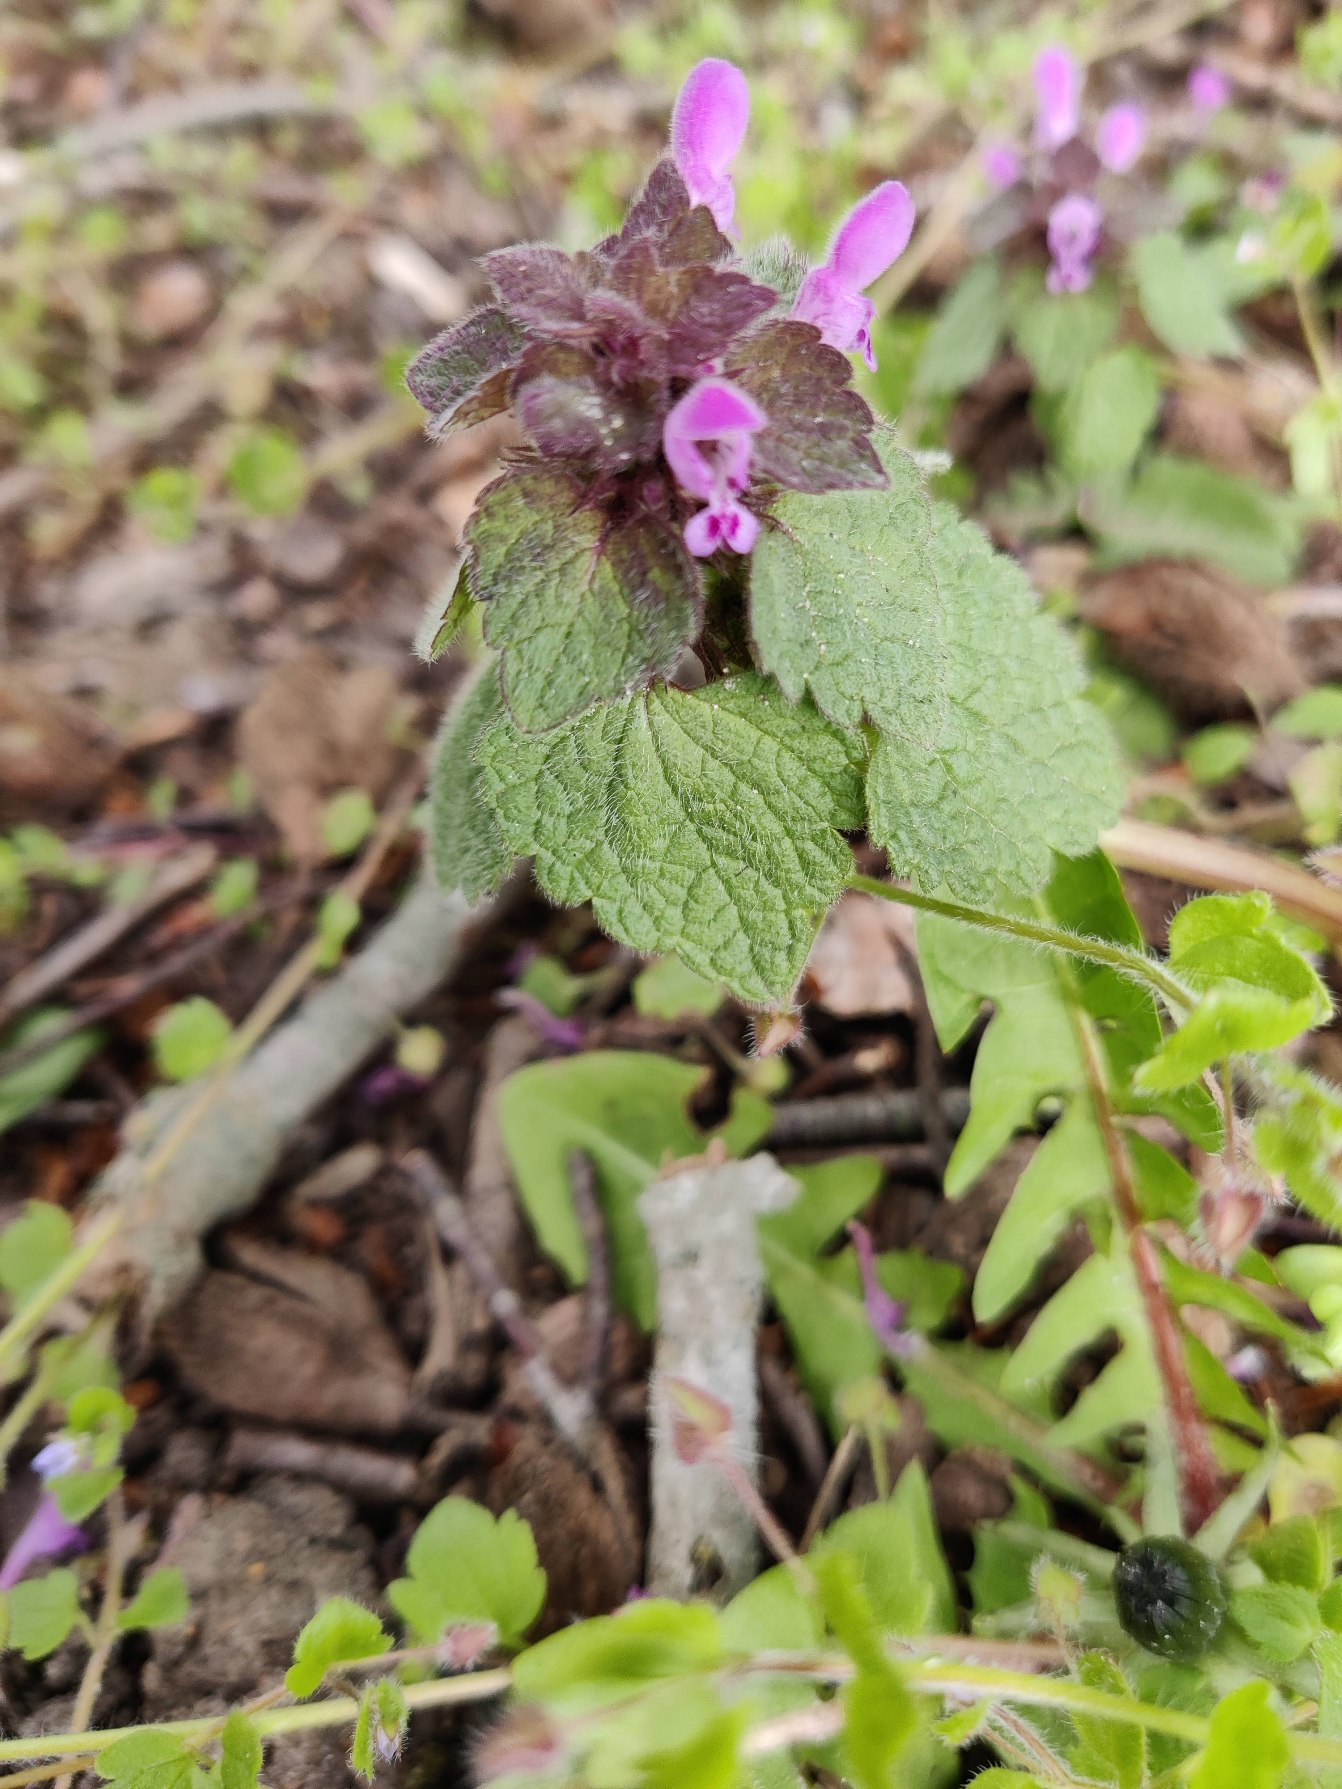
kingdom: Plantae
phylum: Tracheophyta
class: Magnoliopsida
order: Lamiales
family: Lamiaceae
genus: Lamium
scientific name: Lamium purpureum
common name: Rød tvetand
